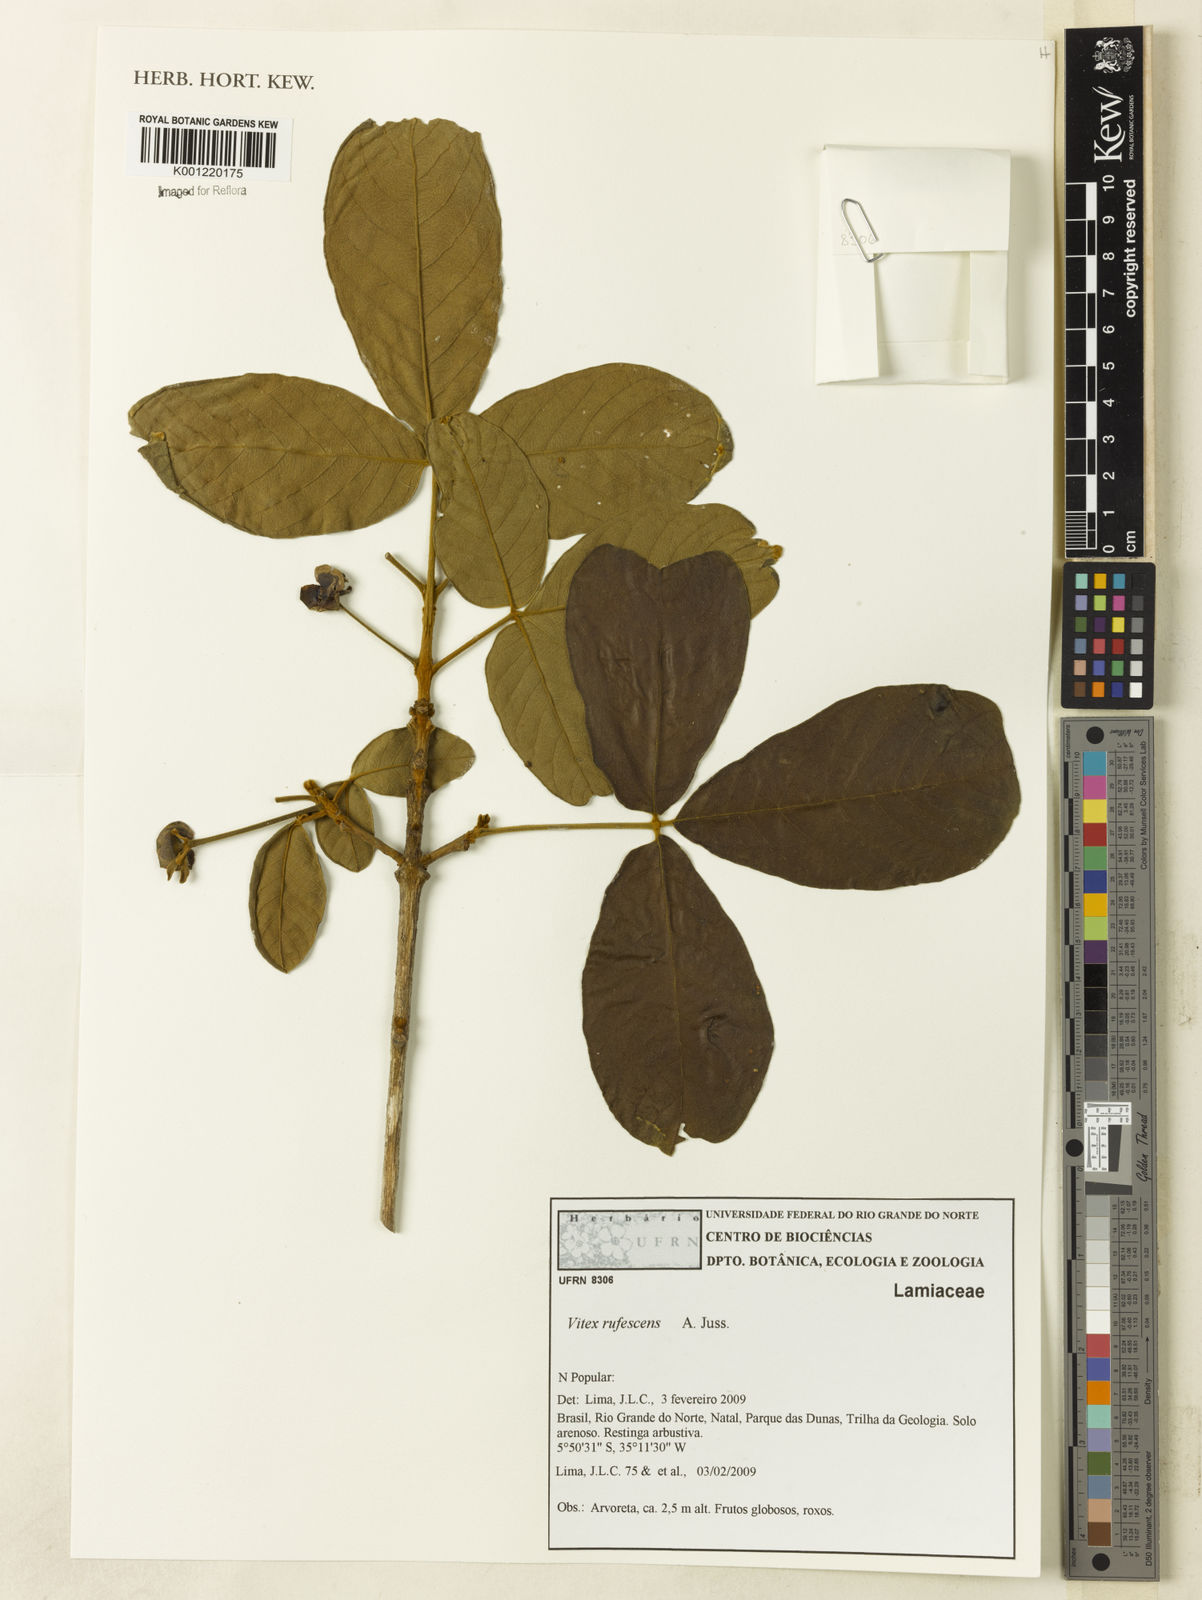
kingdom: Plantae
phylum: Tracheophyta
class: Magnoliopsida
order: Lamiales
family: Lamiaceae
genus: Vitex
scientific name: Vitex rufescens
